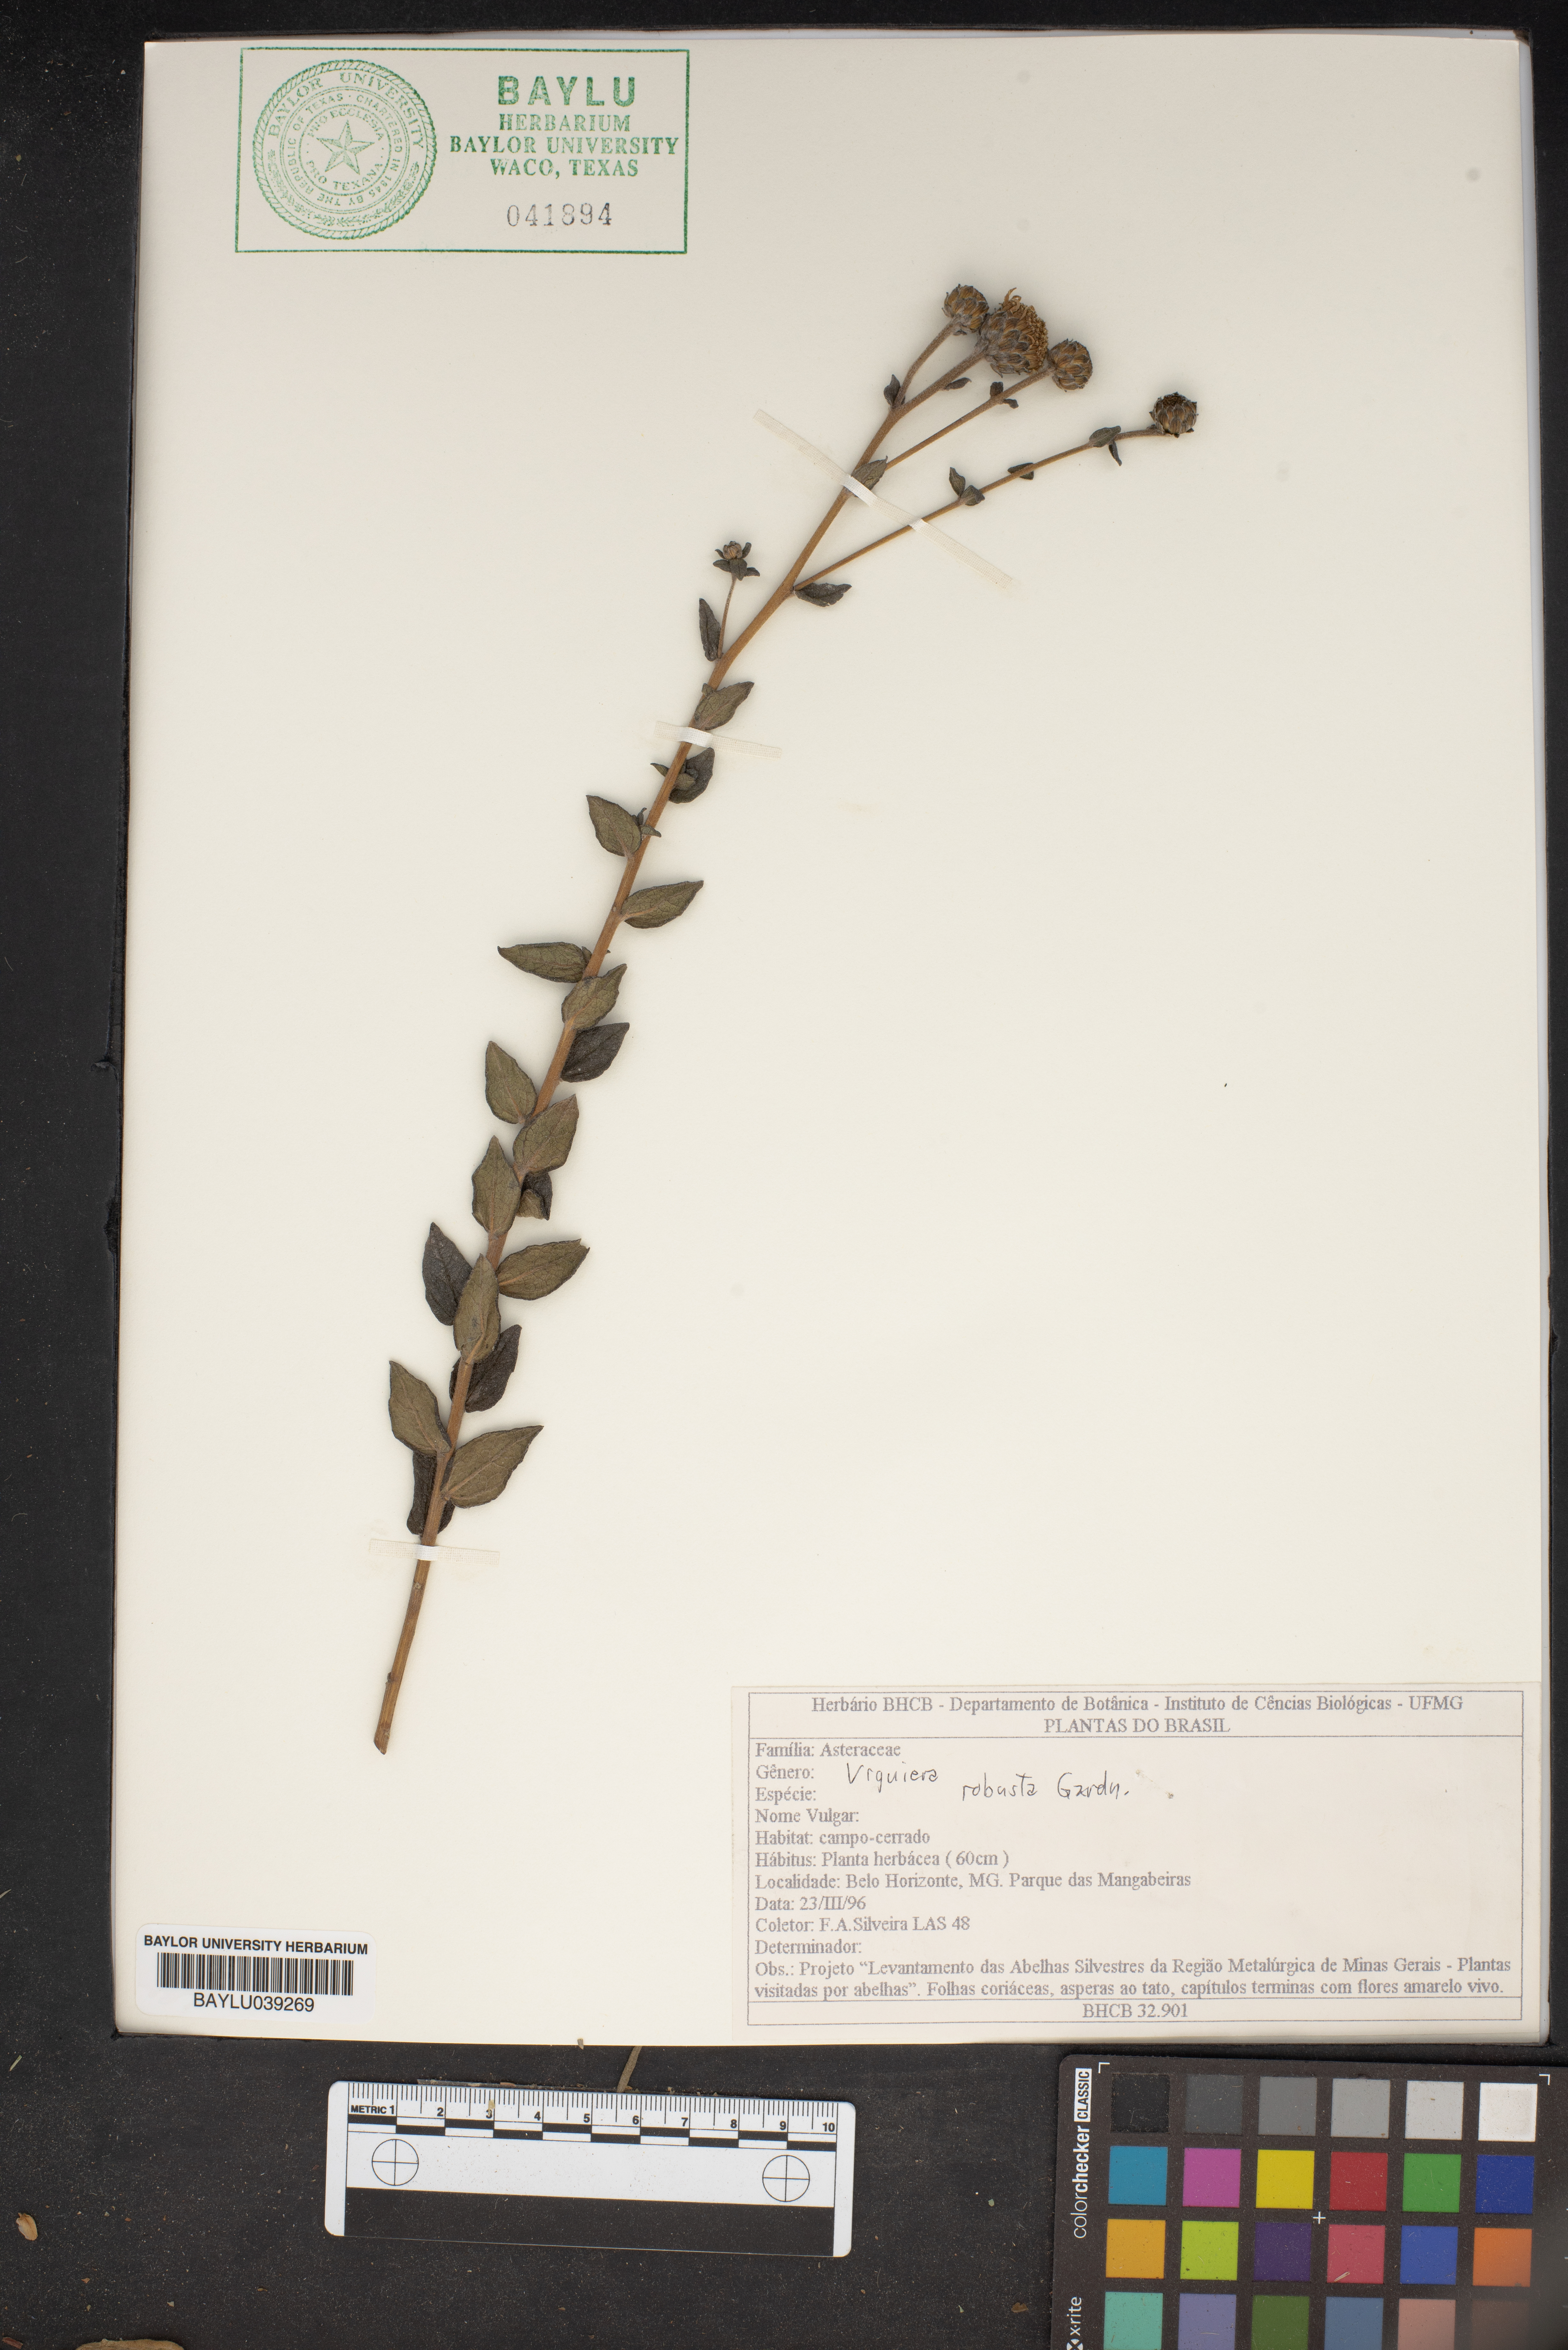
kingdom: Plantae
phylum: Tracheophyta
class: Magnoliopsida
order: Asterales
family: Asteraceae
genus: Aldama
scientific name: Aldama robusta
